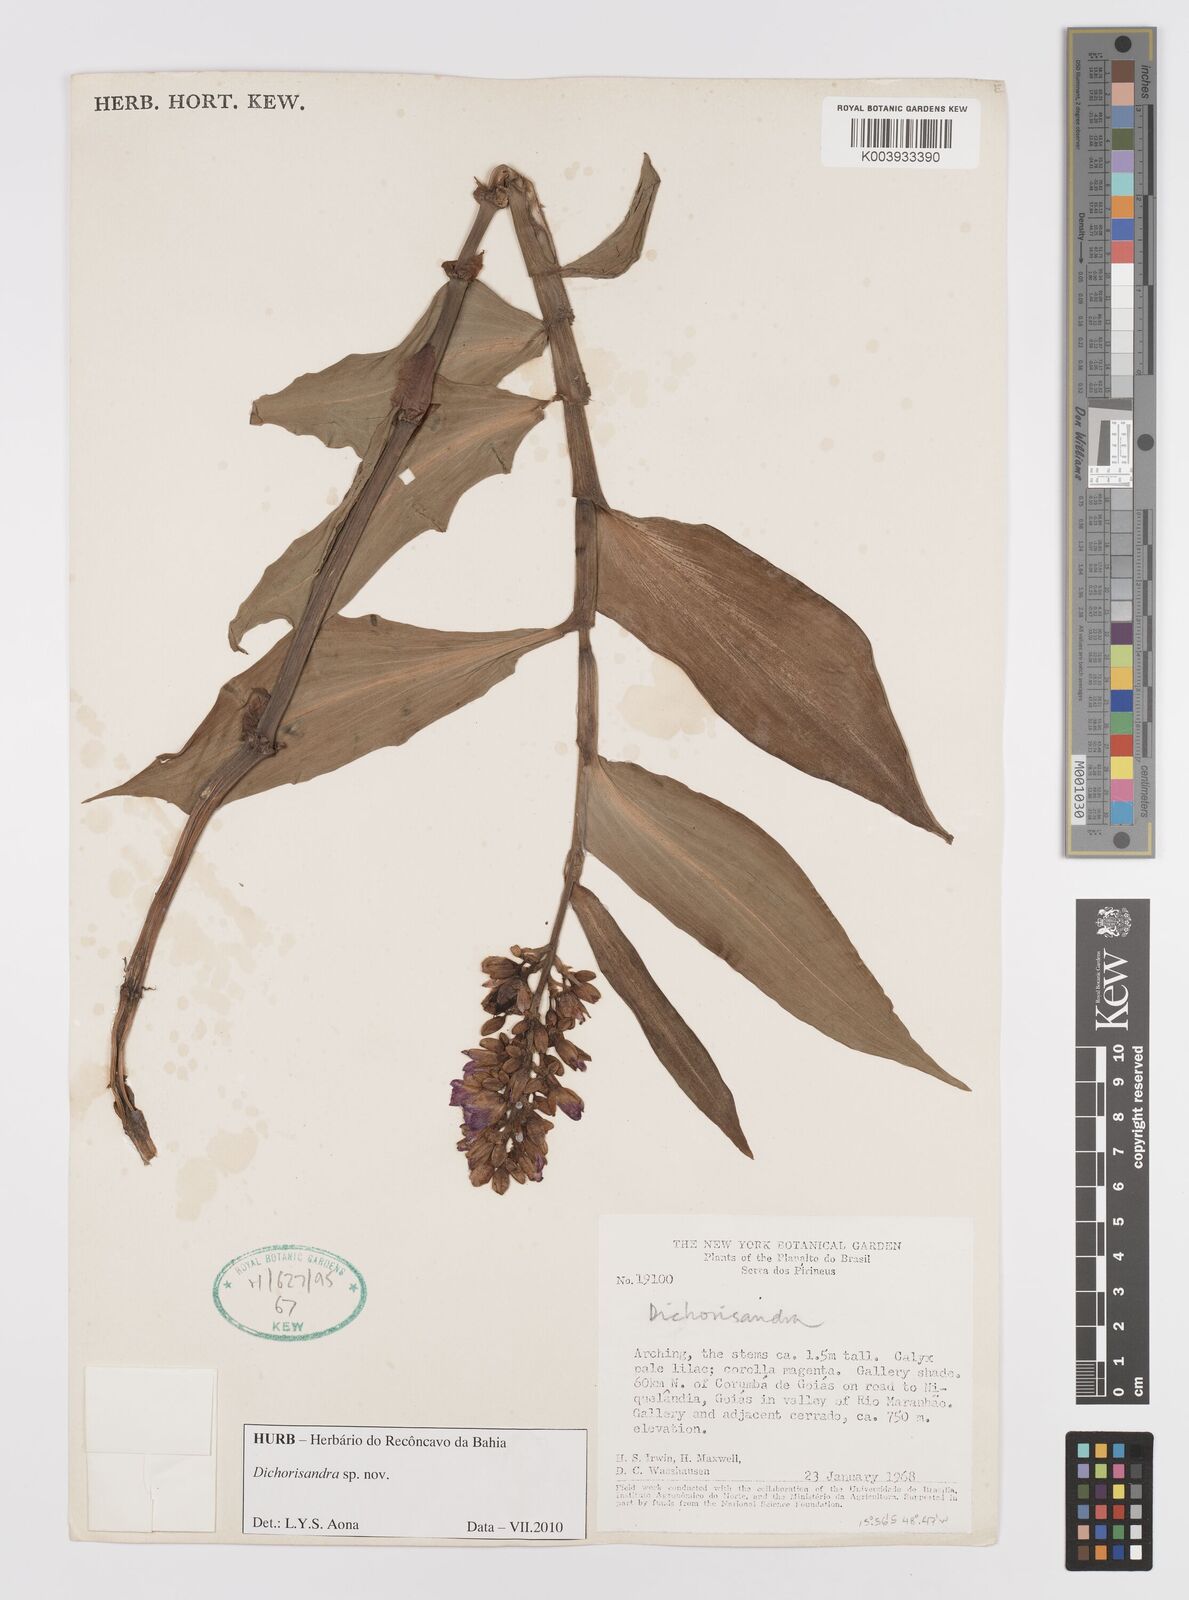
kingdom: Plantae
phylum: Tracheophyta
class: Liliopsida
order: Commelinales
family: Commelinaceae
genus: Dichorisandra
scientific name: Dichorisandra
